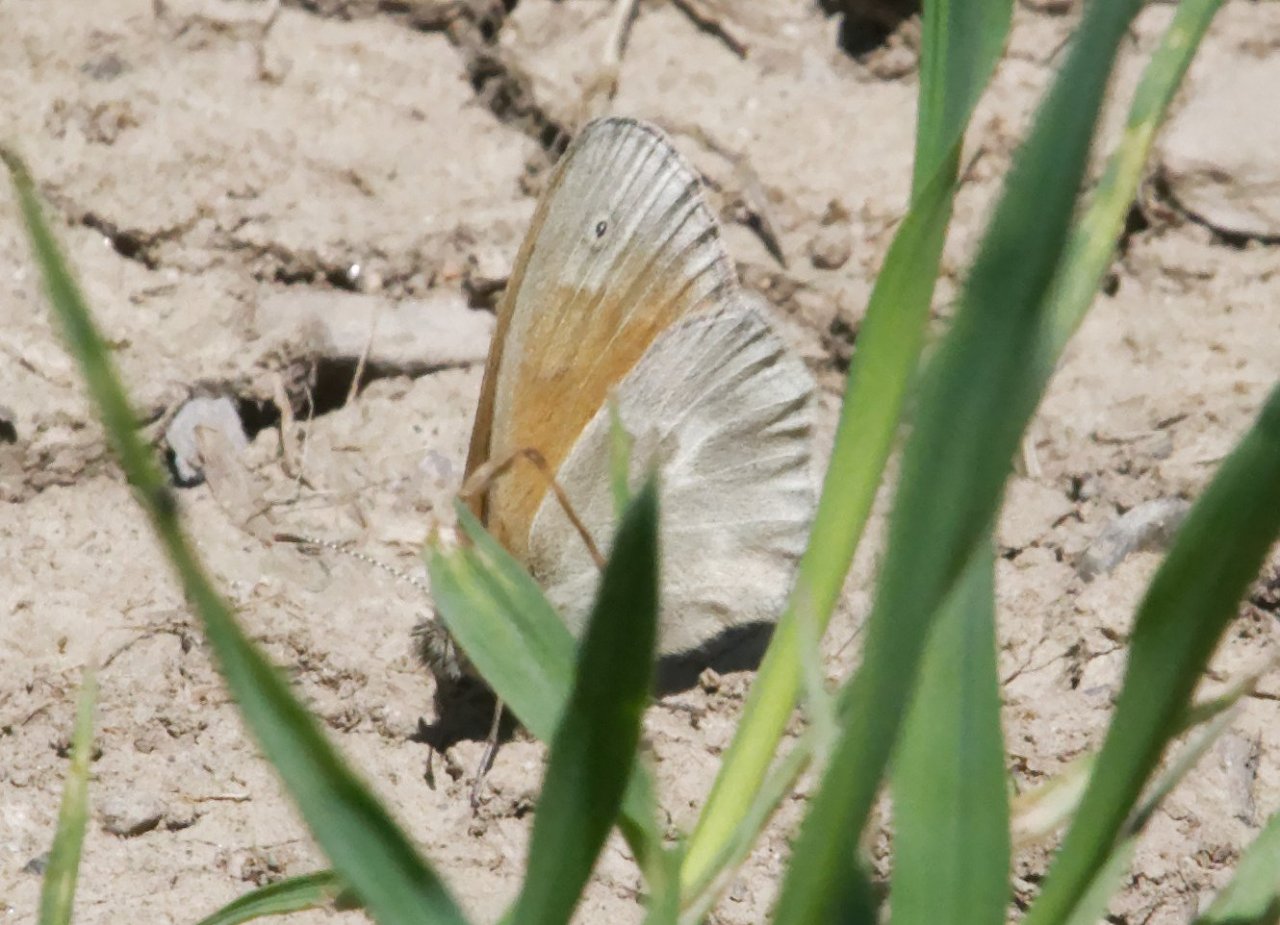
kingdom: Animalia
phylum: Arthropoda
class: Insecta
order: Lepidoptera
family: Nymphalidae
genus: Coenonympha
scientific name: Coenonympha tullia
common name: Large Heath
